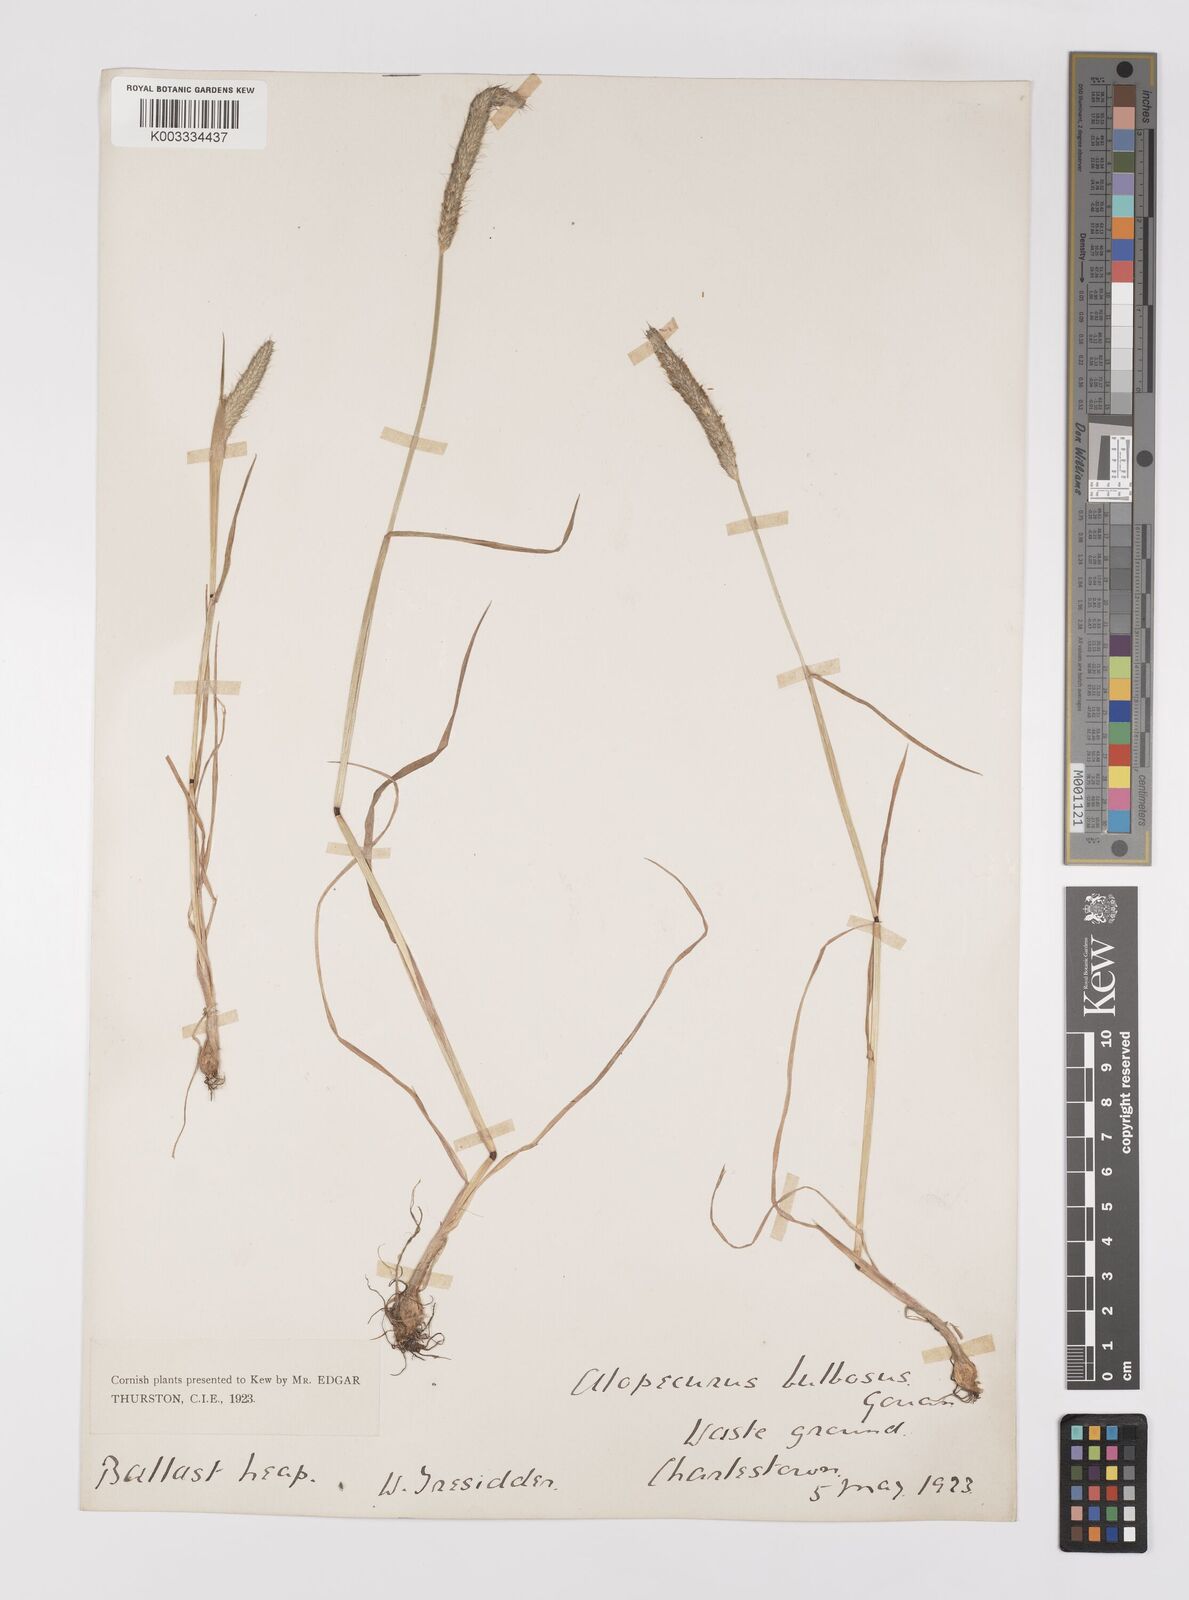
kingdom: Plantae
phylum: Tracheophyta
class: Liliopsida
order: Poales
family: Poaceae
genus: Alopecurus
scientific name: Alopecurus bulbosus
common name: Bulbous foxtail
